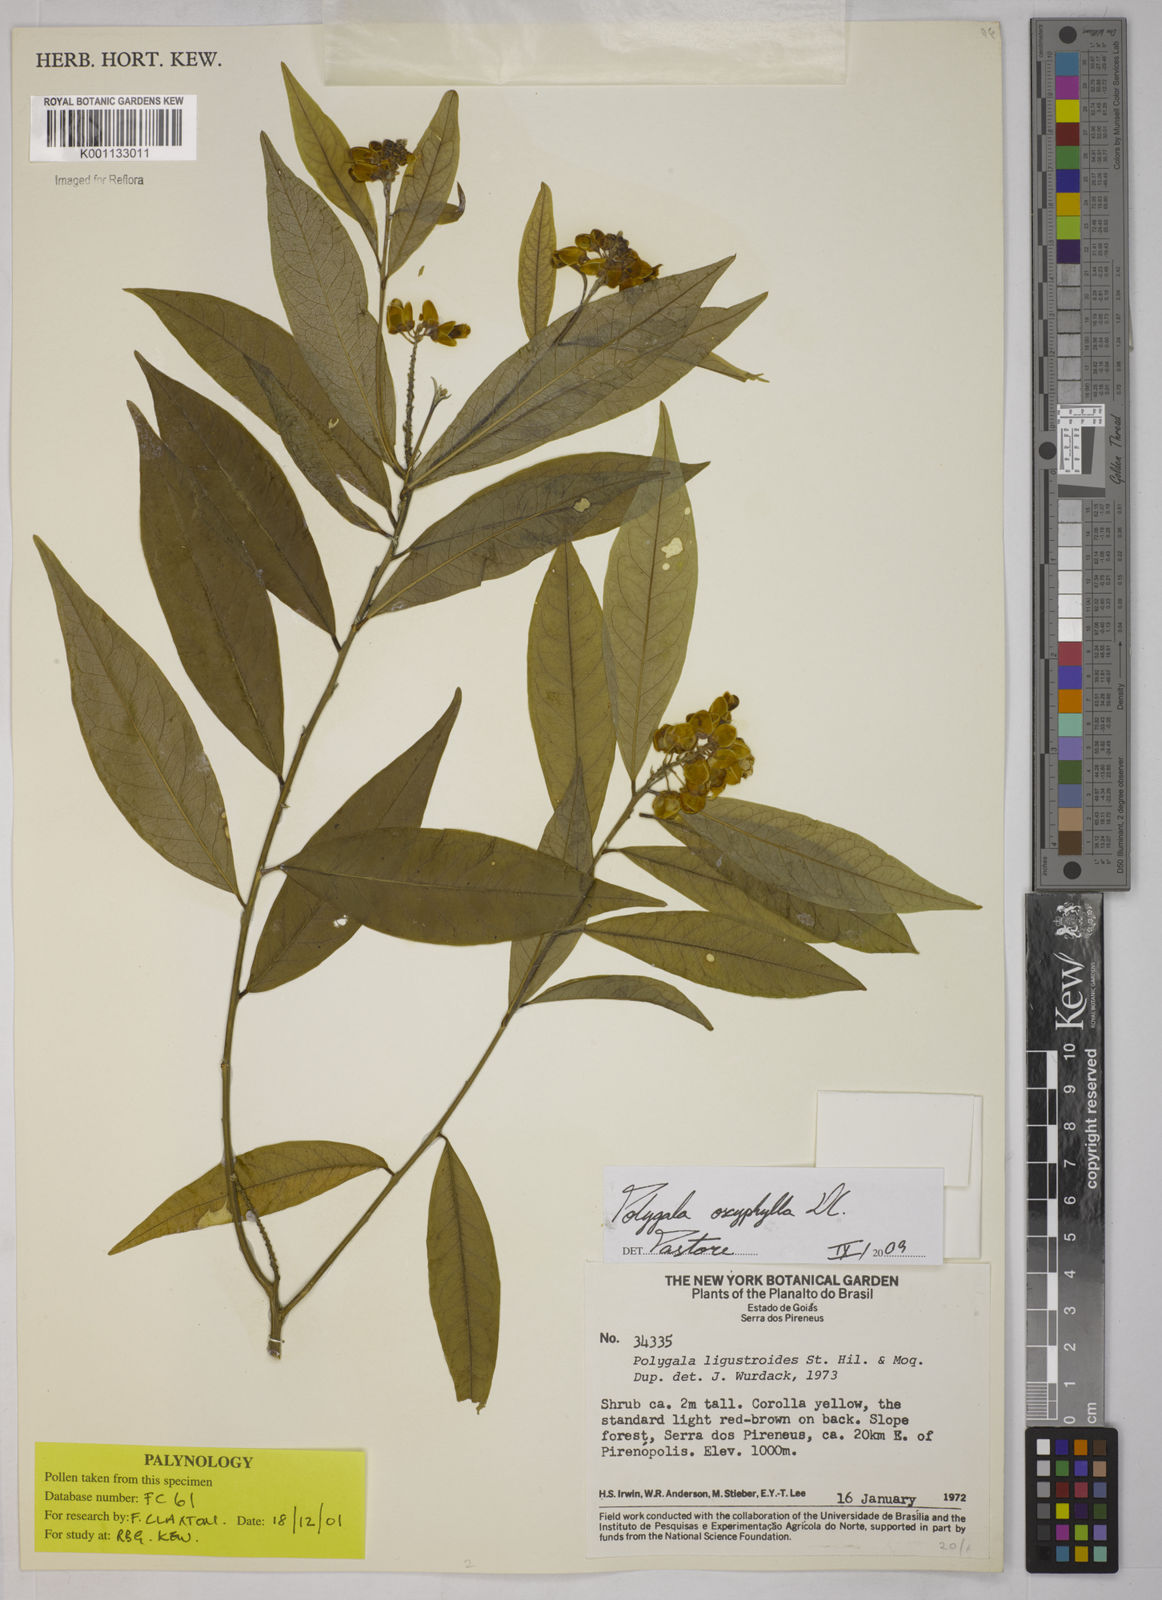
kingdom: Plantae
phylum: Tracheophyta
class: Magnoliopsida
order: Fabales
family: Polygalaceae
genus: Caamembeca
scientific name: Caamembeca oxyphylla
